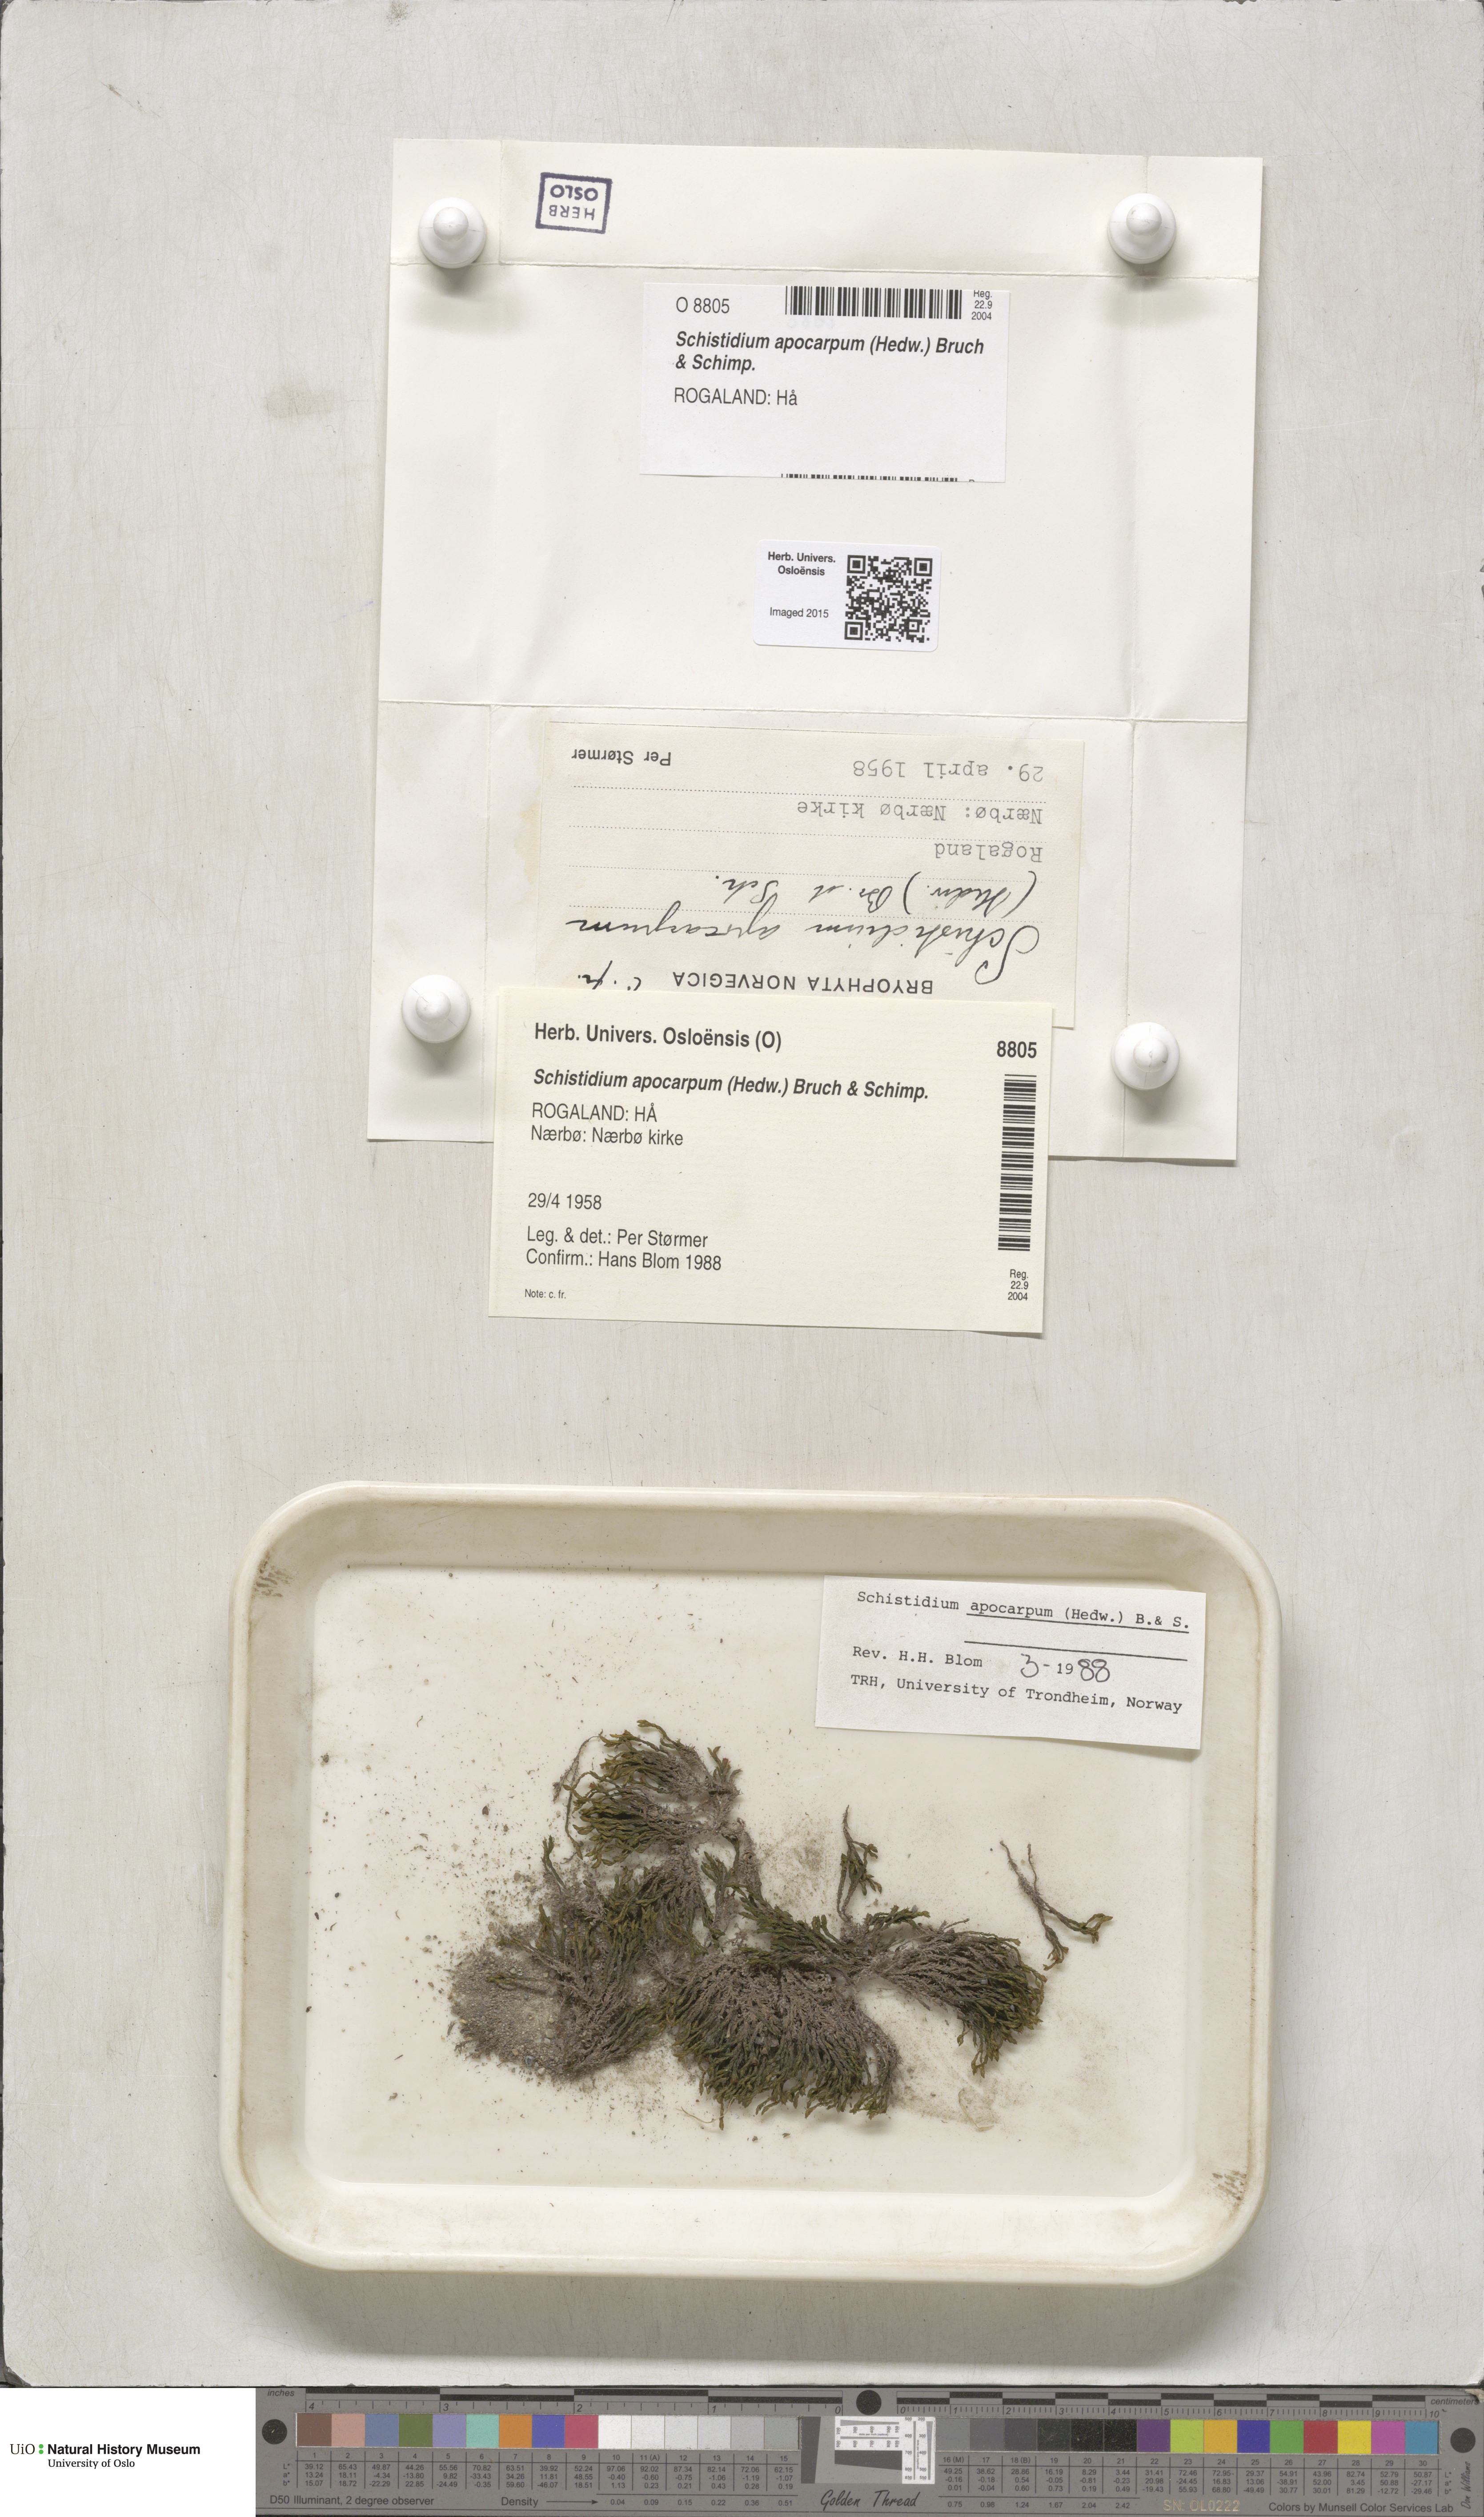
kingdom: Plantae
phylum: Bryophyta
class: Bryopsida
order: Grimmiales
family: Grimmiaceae
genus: Schistidium
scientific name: Schistidium apocarpum
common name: Radiate bloom moss
